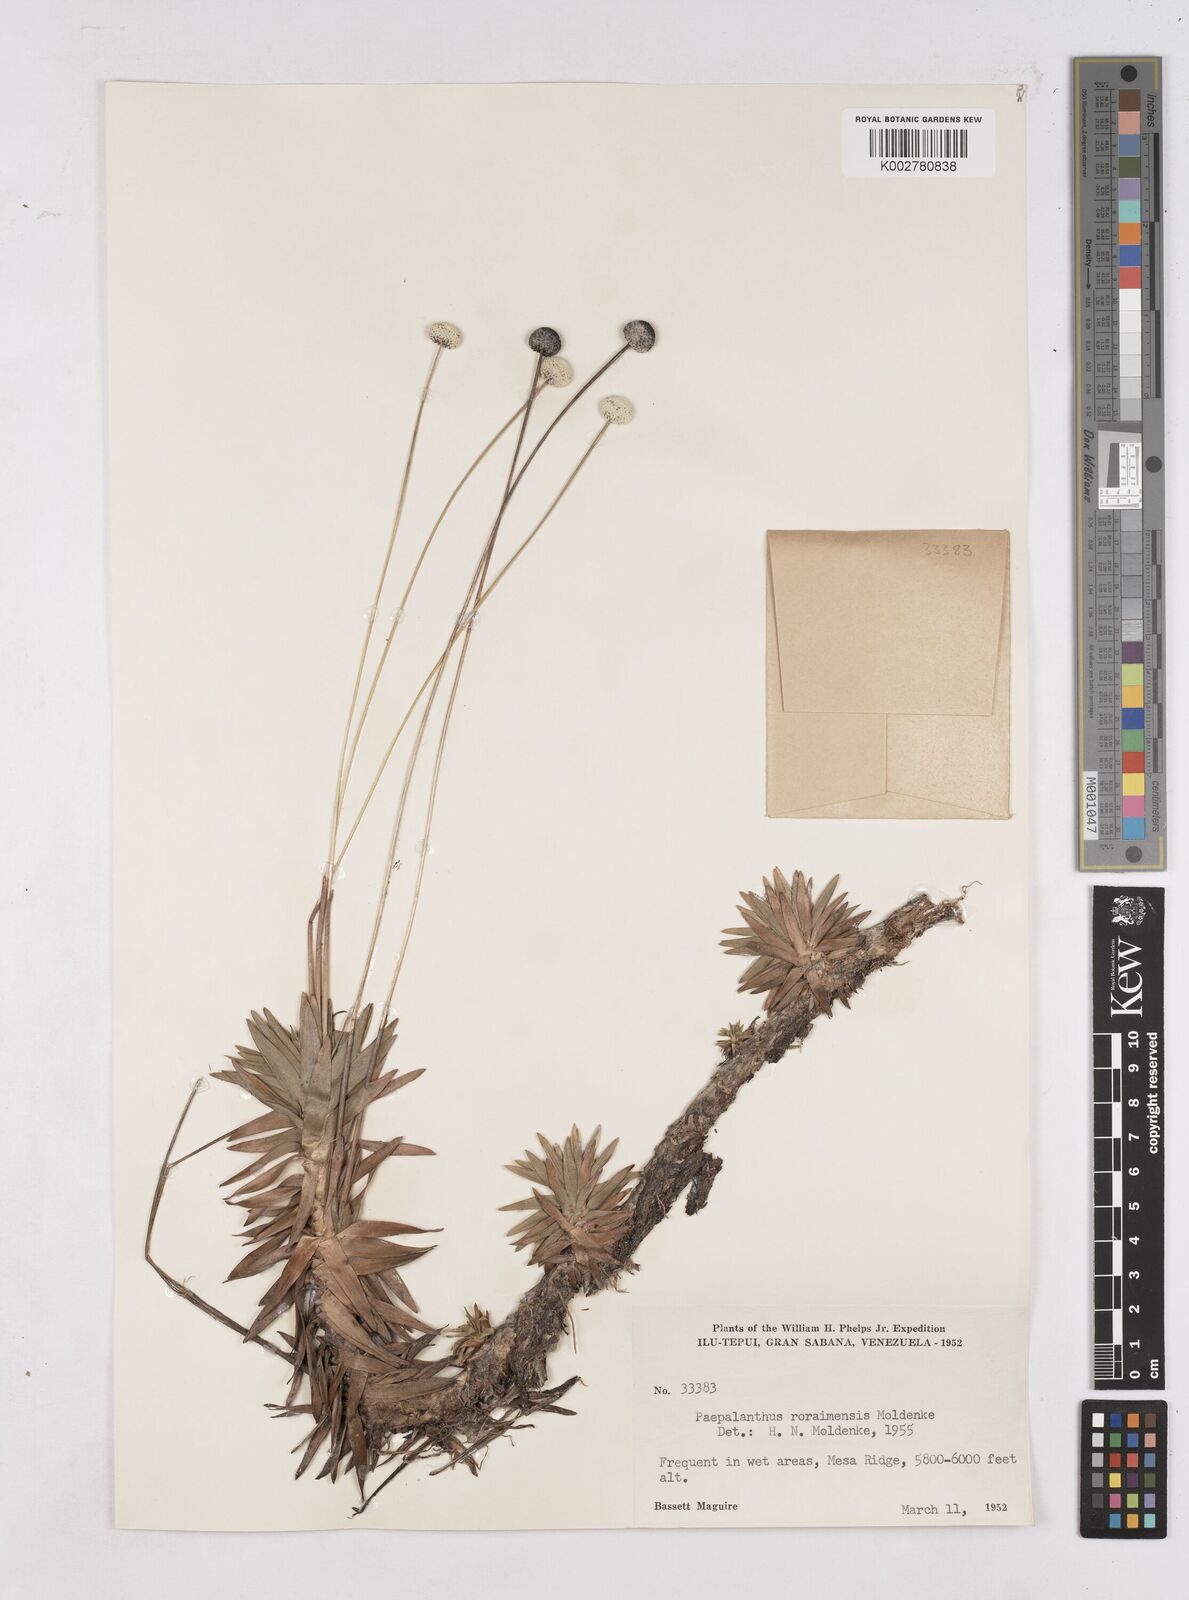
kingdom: Plantae
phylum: Tracheophyta
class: Liliopsida
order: Poales
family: Eriocaulaceae
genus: Paepalanthus
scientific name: Paepalanthus roraimensis
